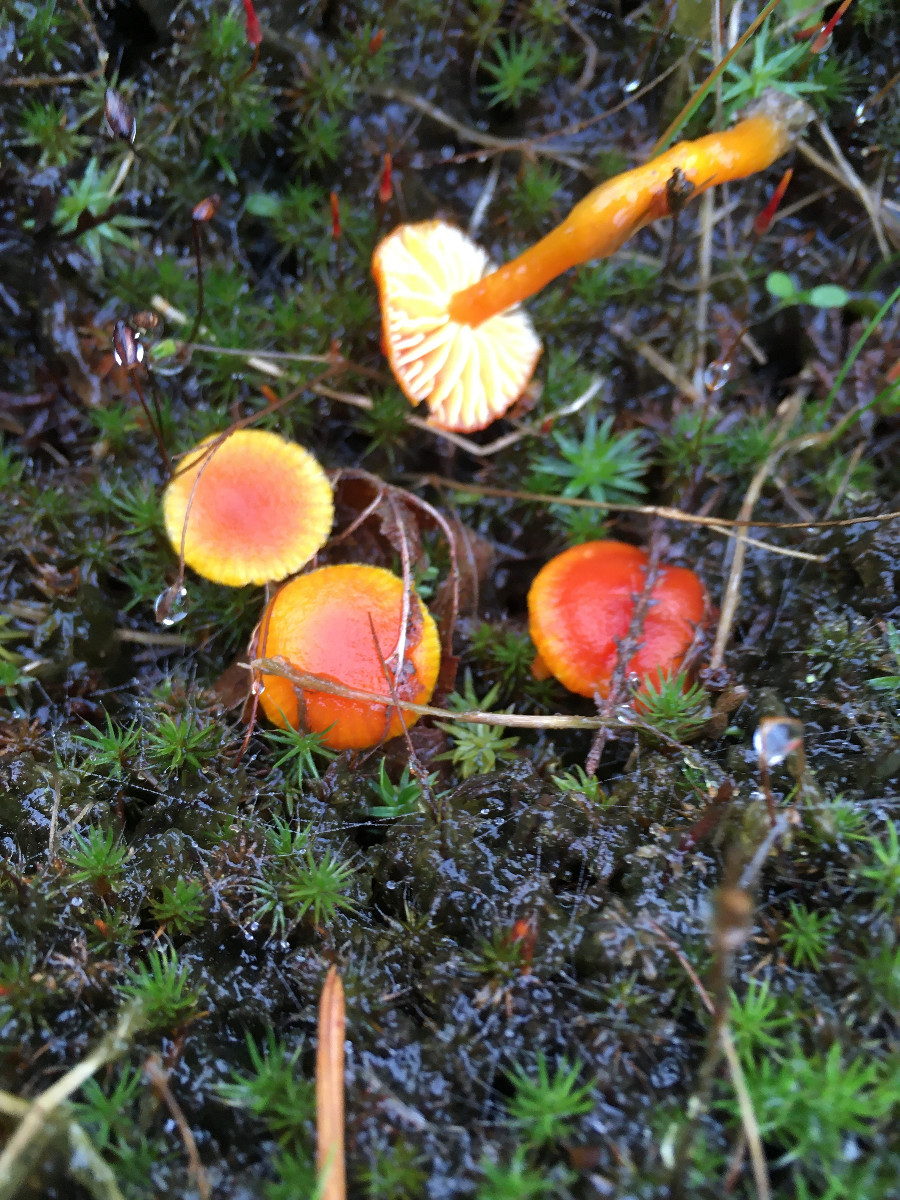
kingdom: Fungi
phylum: Basidiomycota
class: Agaricomycetes
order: Agaricales
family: Hygrophoraceae
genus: Hygrocybe
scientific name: Hygrocybe
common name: vokshat
